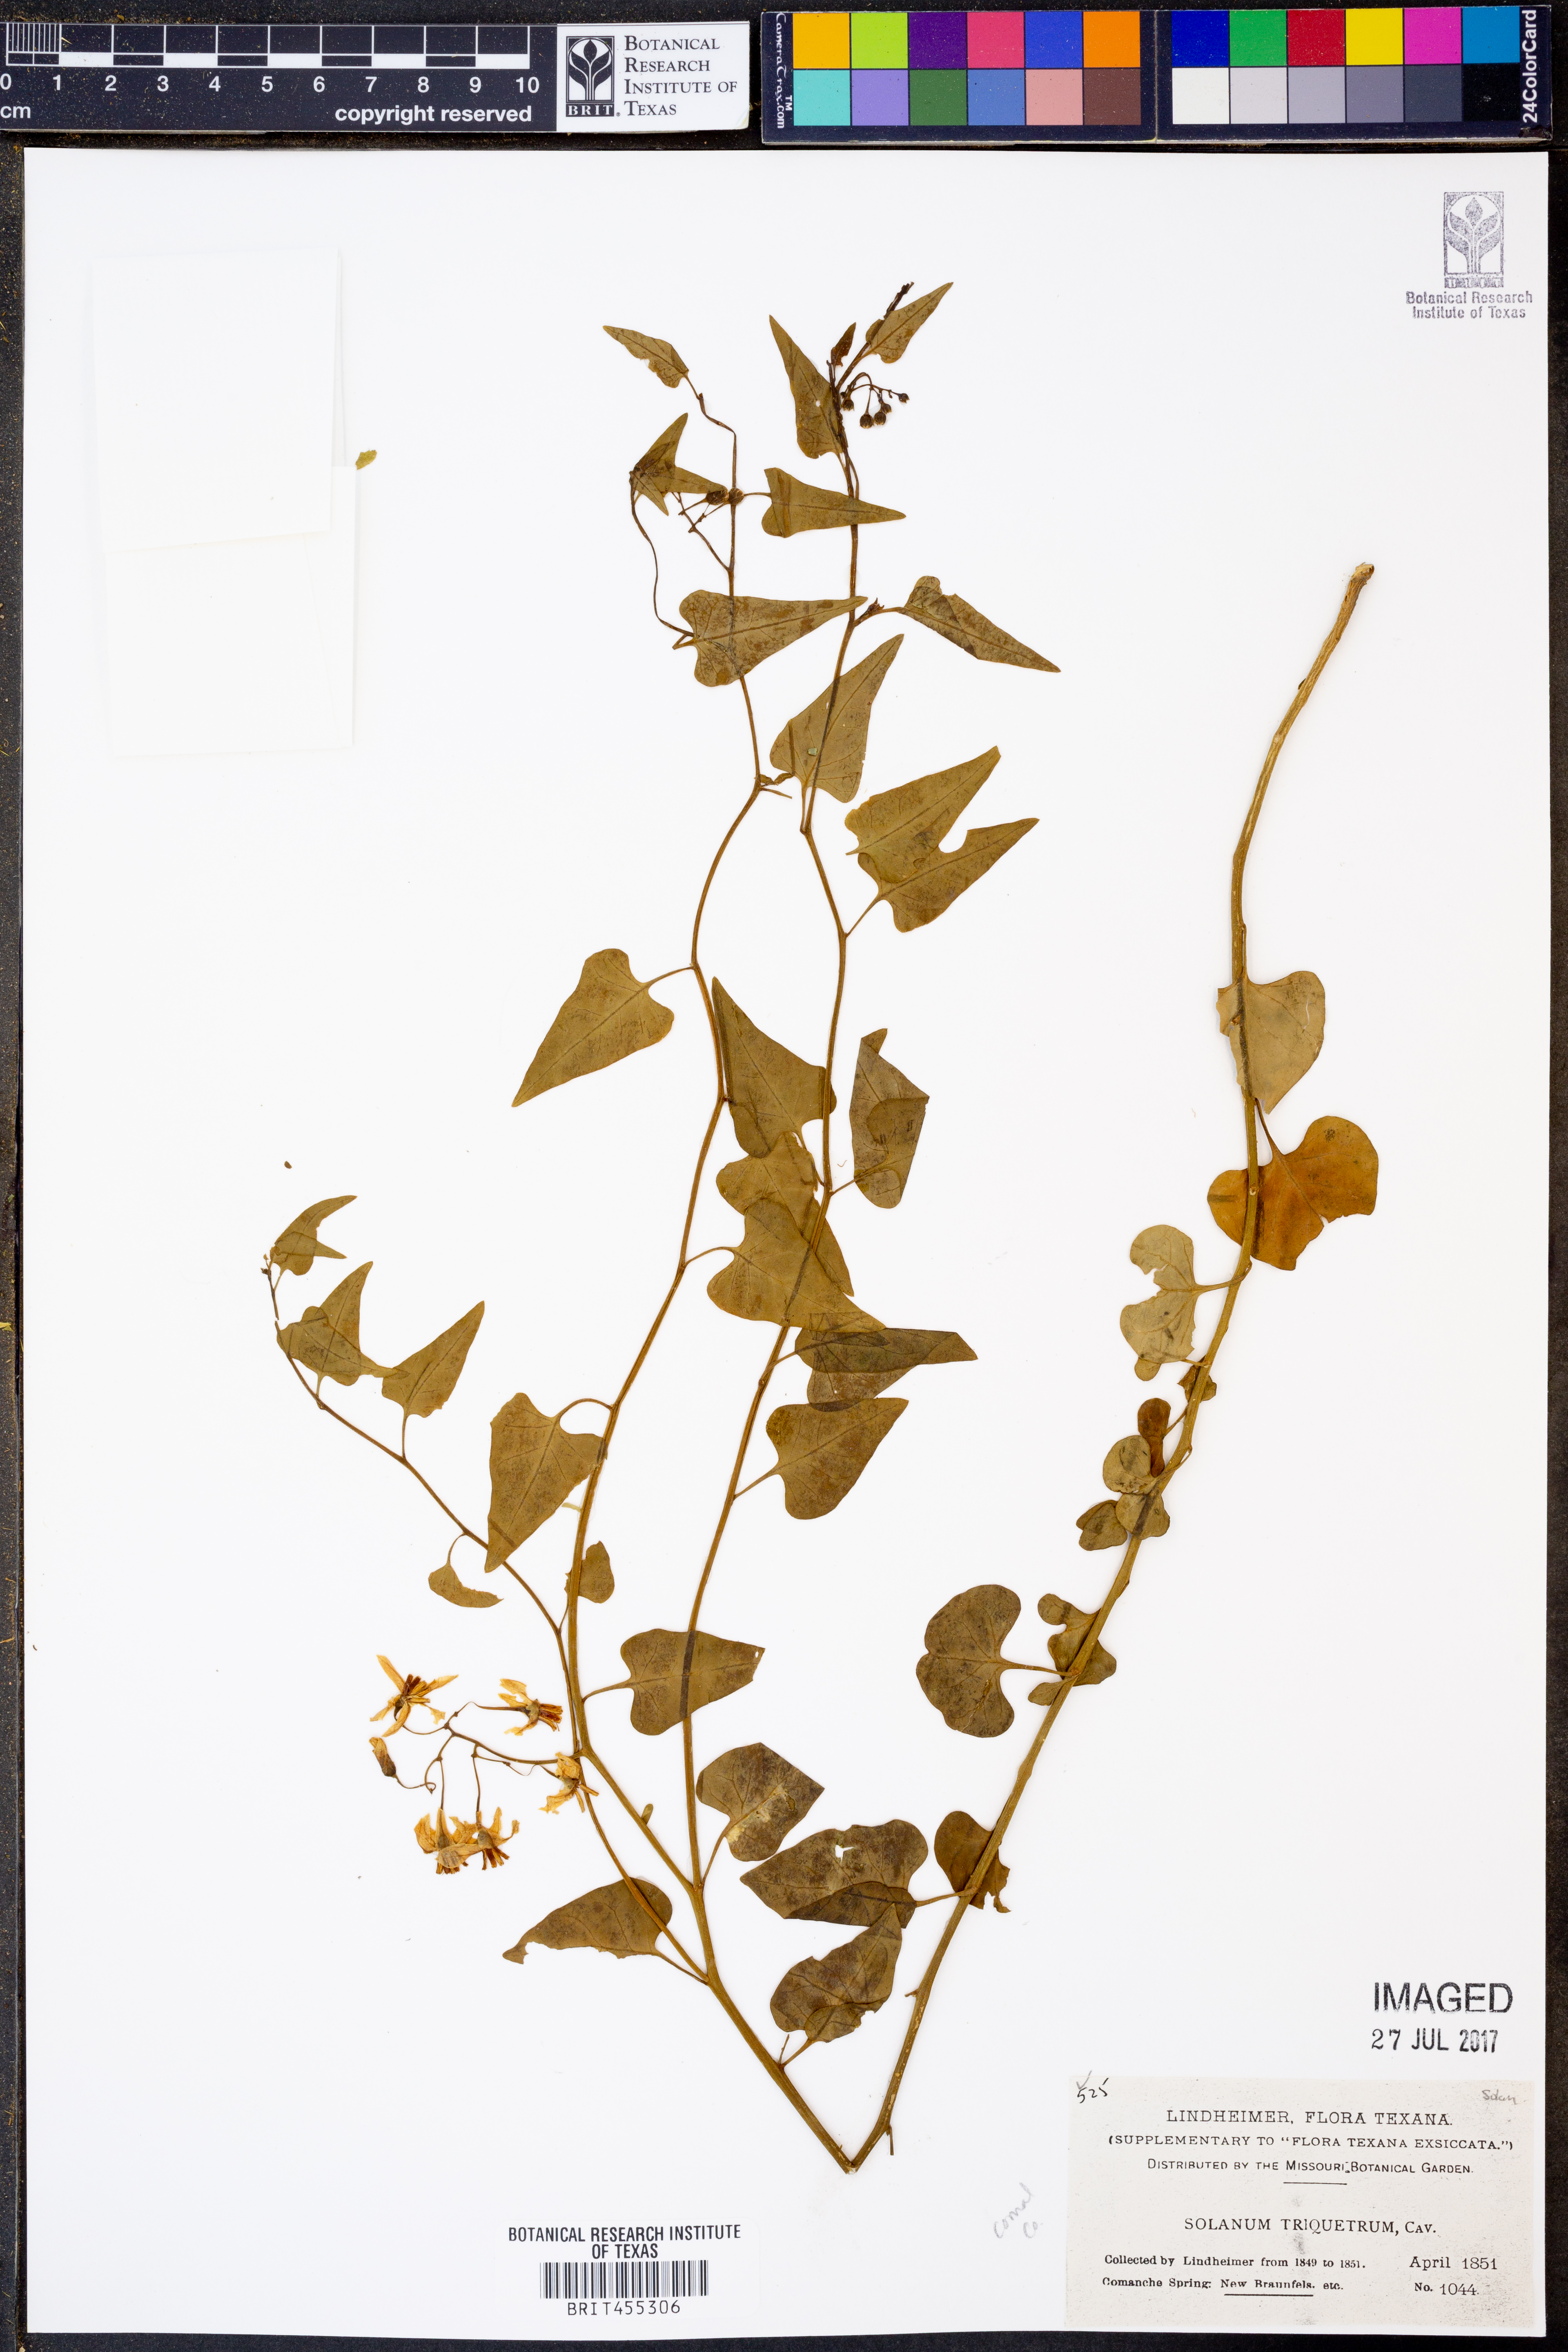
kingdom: Plantae
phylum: Tracheophyta
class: Magnoliopsida
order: Solanales
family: Solanaceae
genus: Solanum
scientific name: Solanum triquetrum
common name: Texas nightshade
